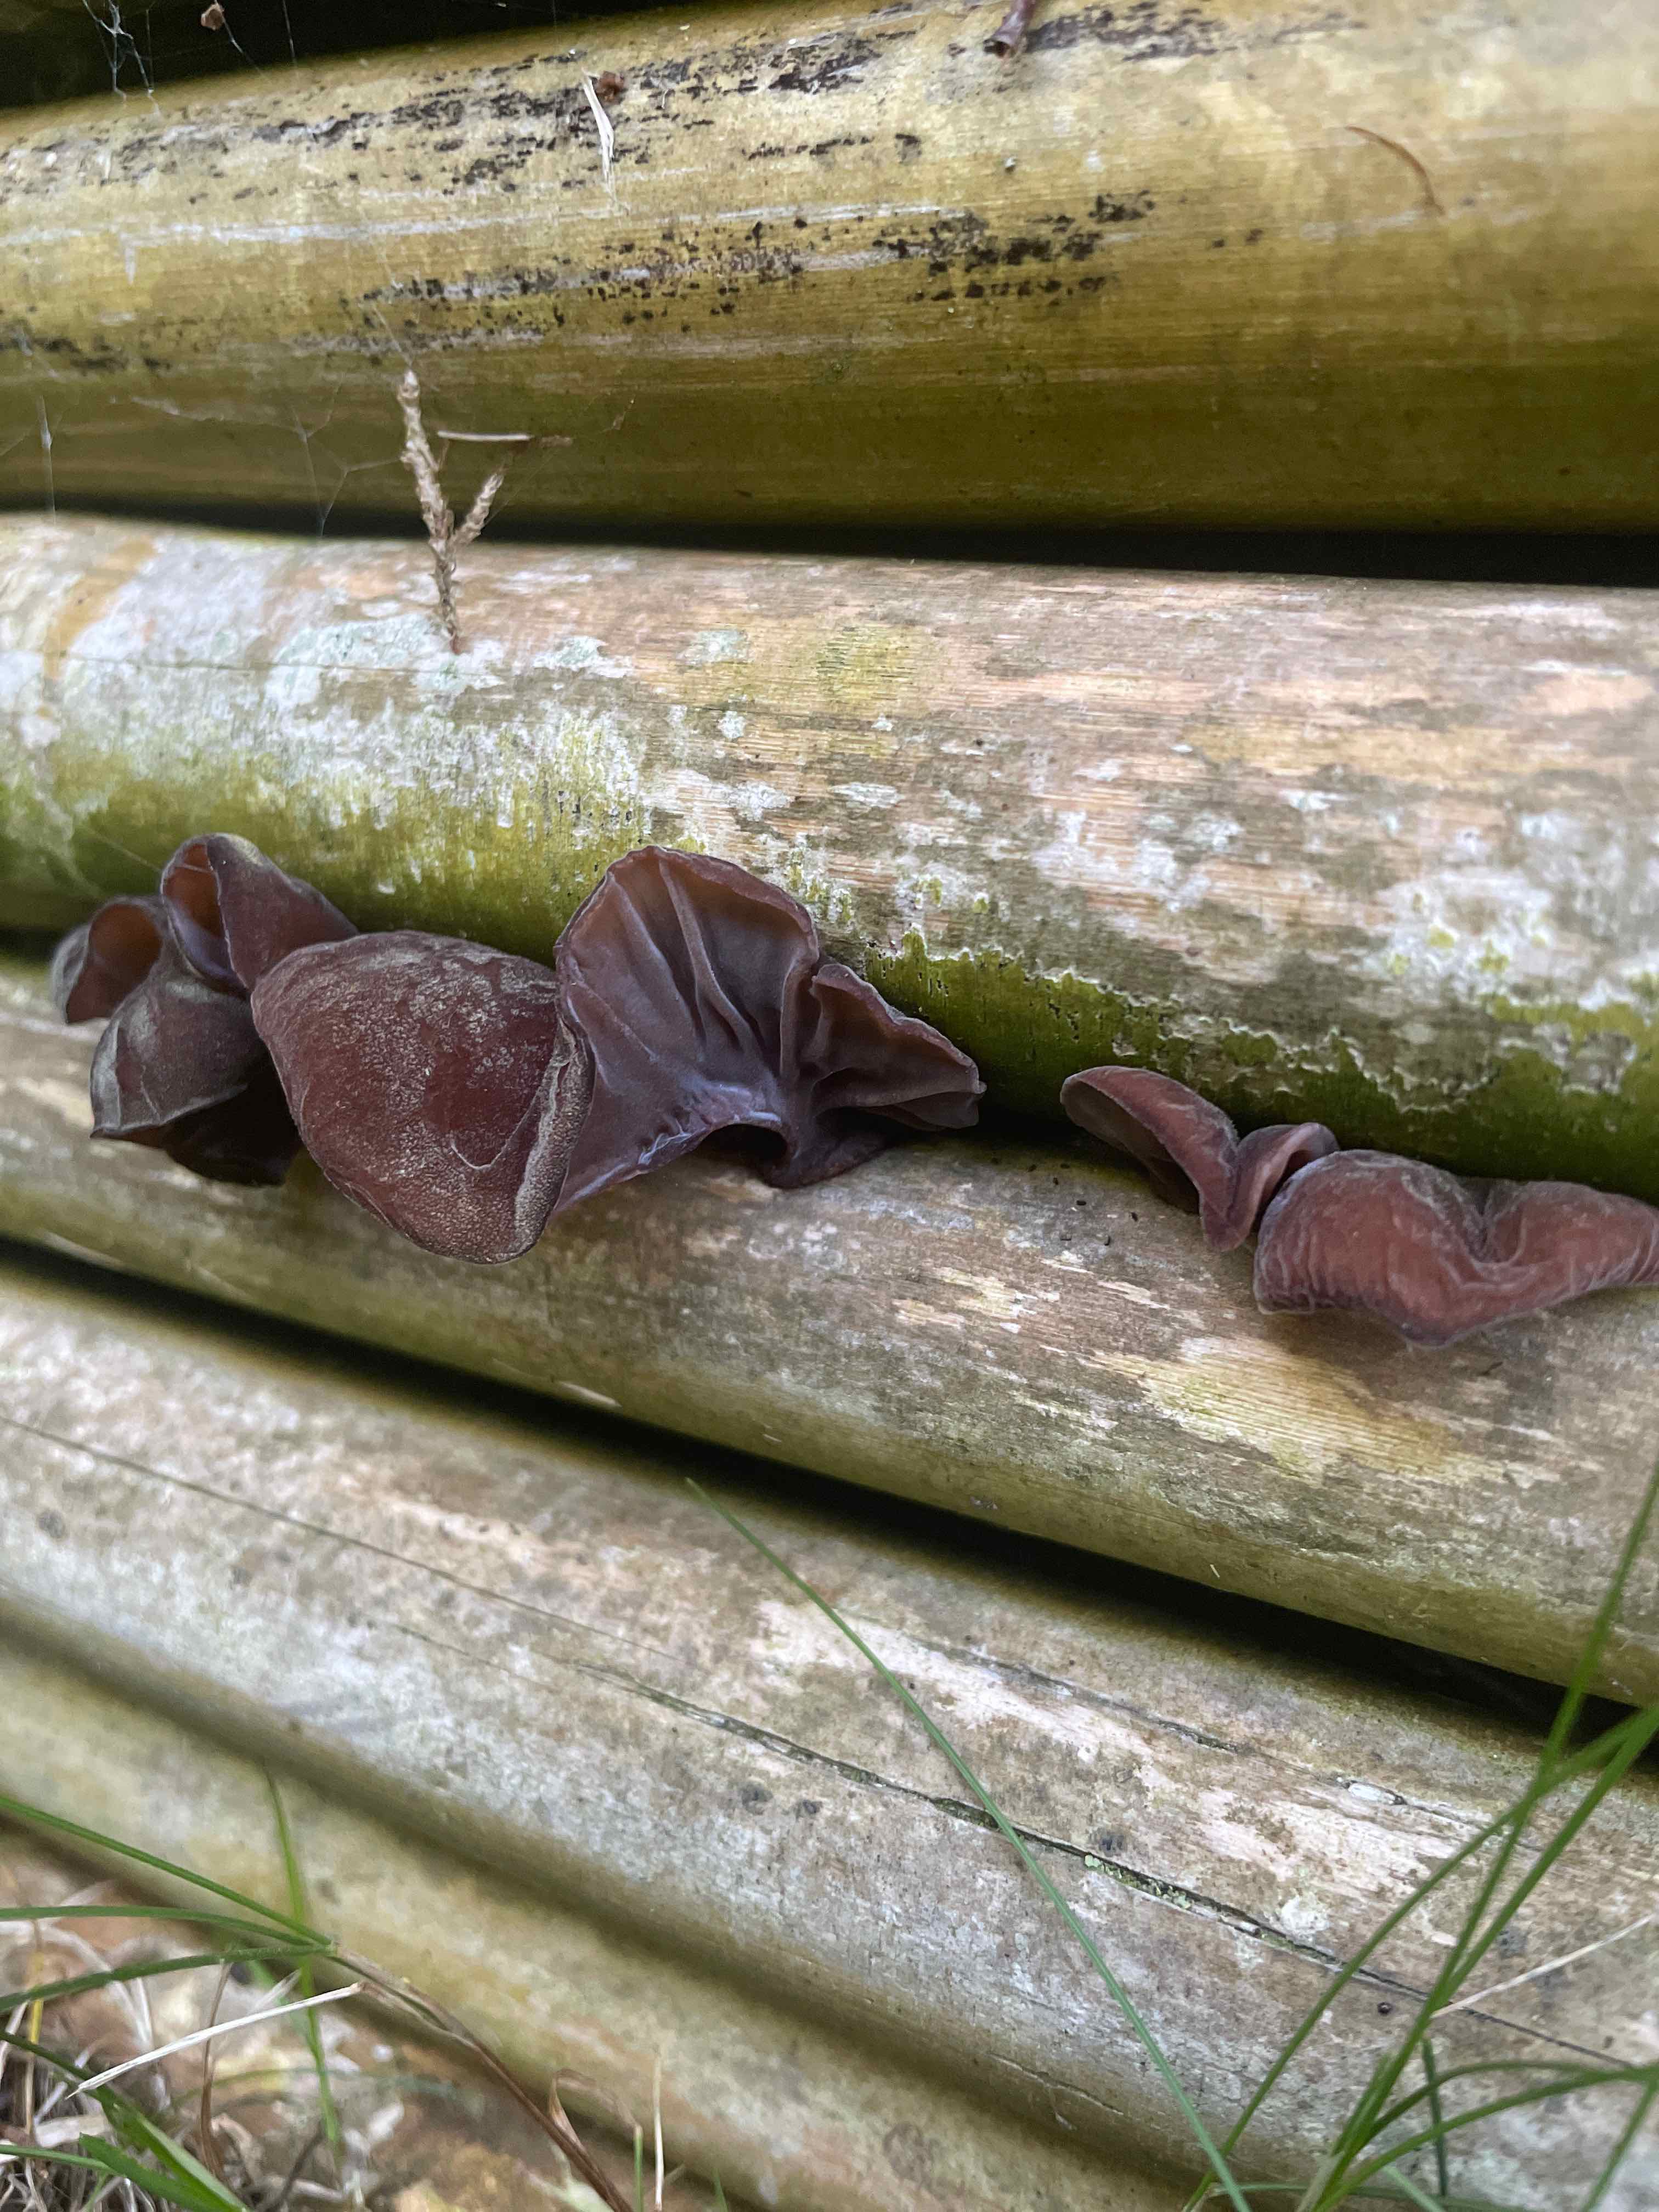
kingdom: Fungi
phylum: Basidiomycota
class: Agaricomycetes
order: Auriculariales
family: Auriculariaceae
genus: Auricularia
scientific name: Auricularia auricula-judae
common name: almindelig judasøre
